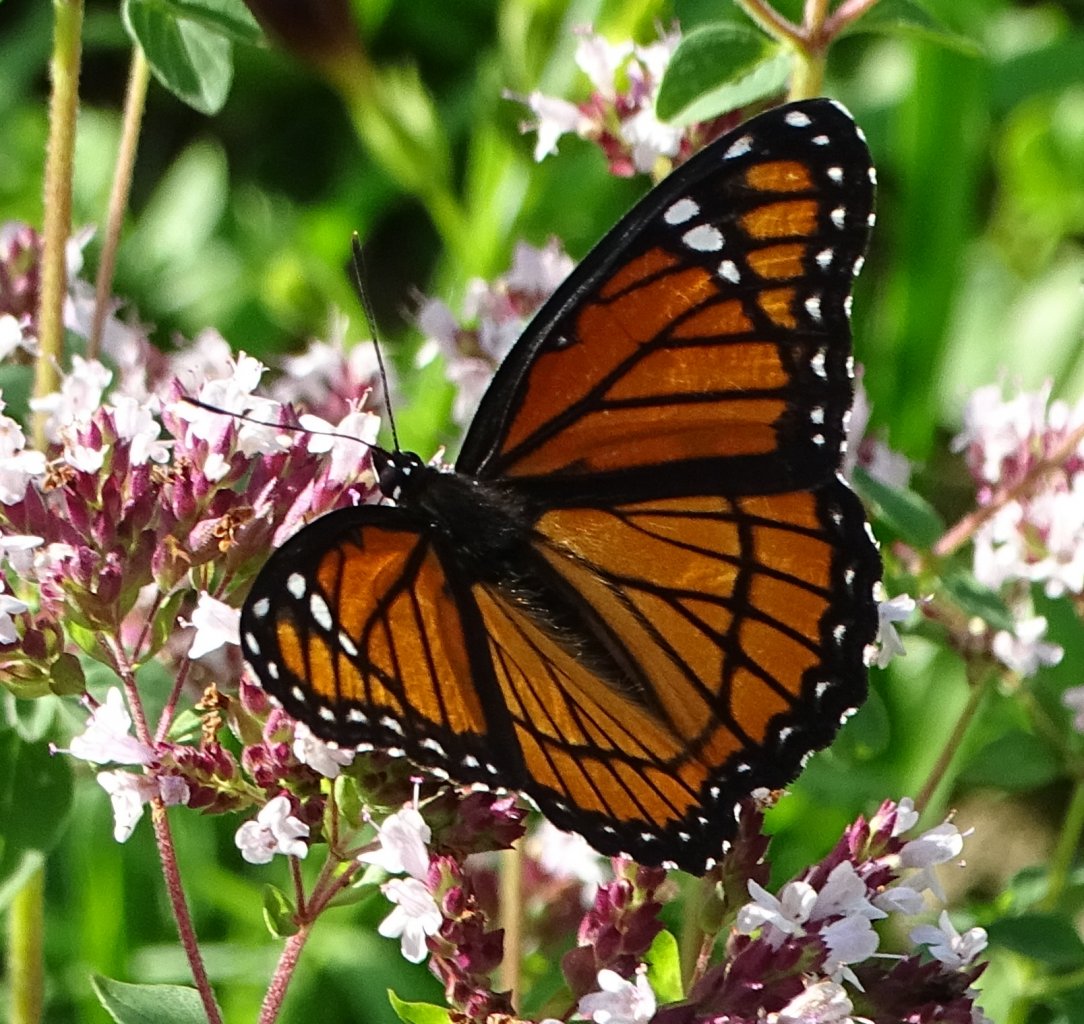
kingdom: Animalia
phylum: Arthropoda
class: Insecta
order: Lepidoptera
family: Nymphalidae
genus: Limenitis
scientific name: Limenitis archippus
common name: Viceroy
